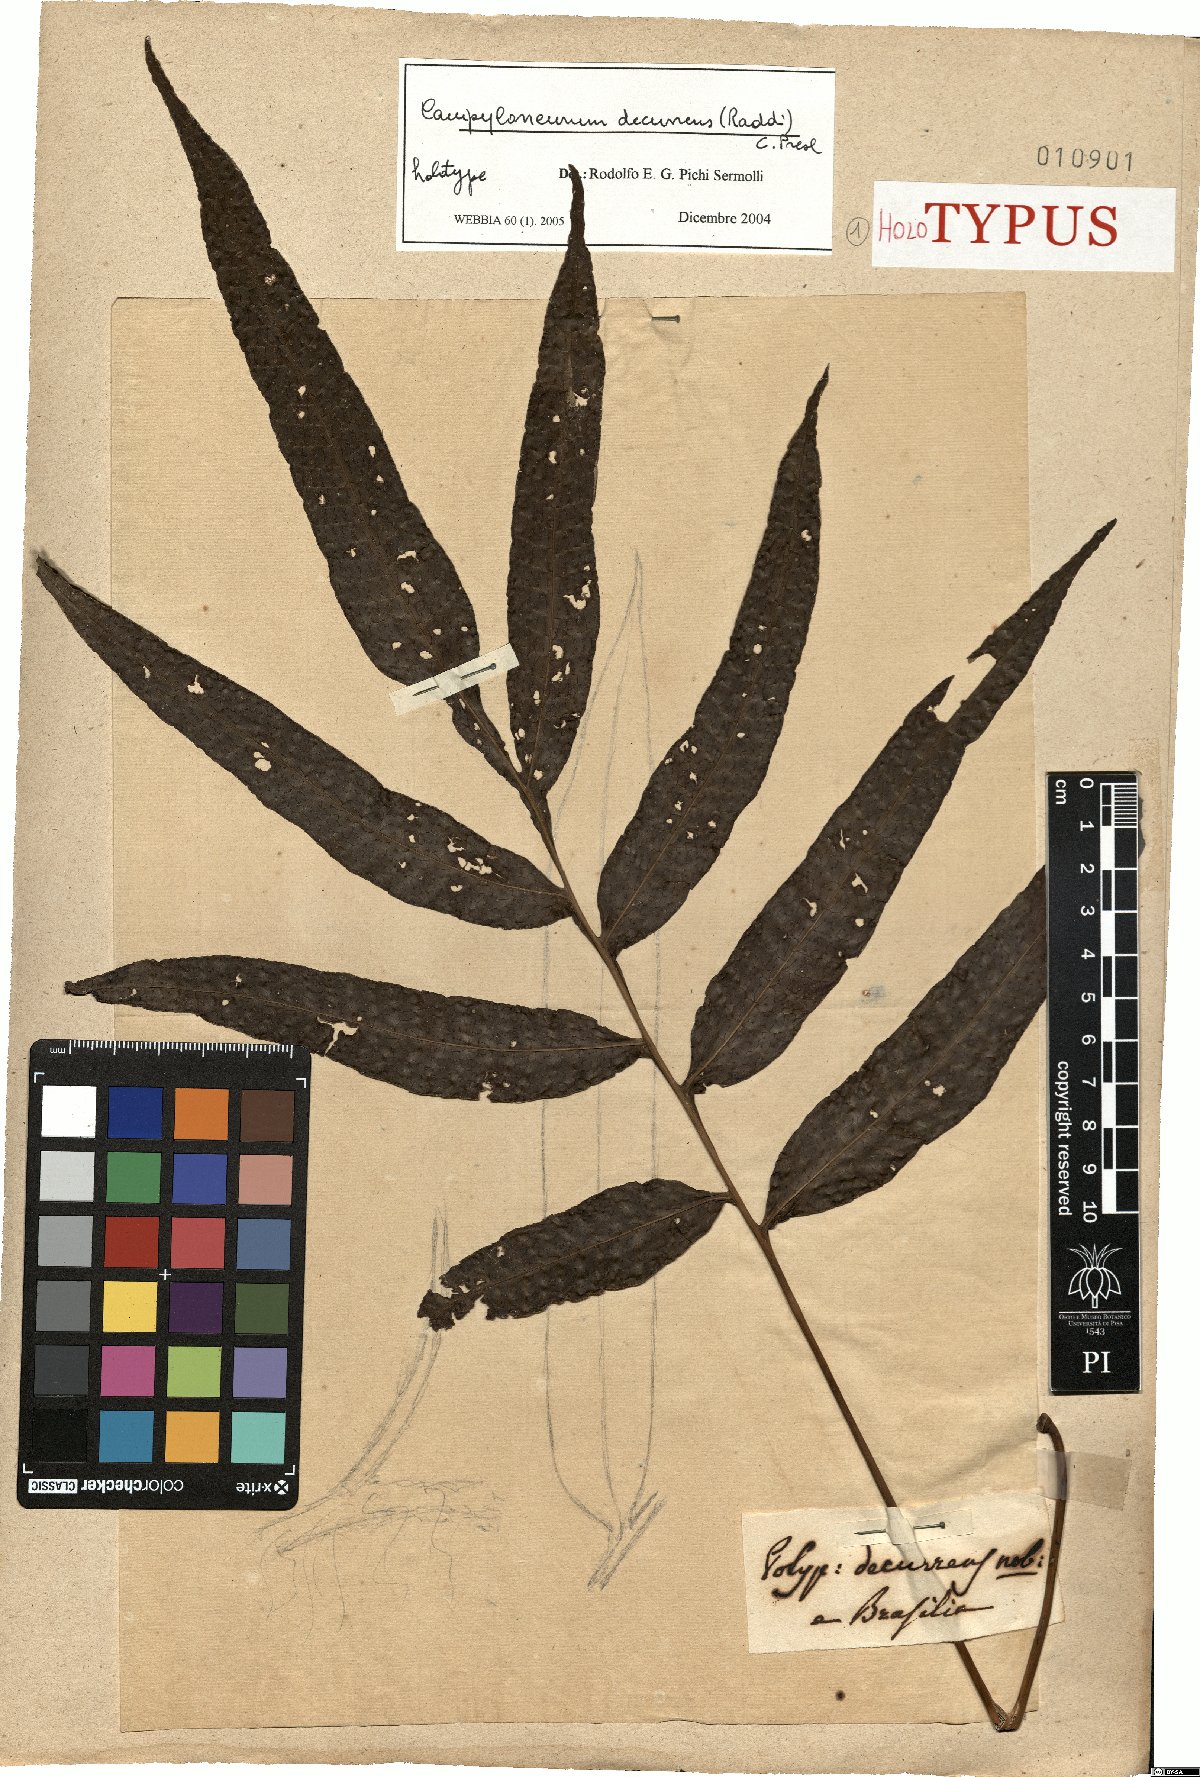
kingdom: Plantae
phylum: Tracheophyta
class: Polypodiopsida
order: Polypodiales
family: Polypodiaceae
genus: Campyloneurum
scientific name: Campyloneurum decurrens
